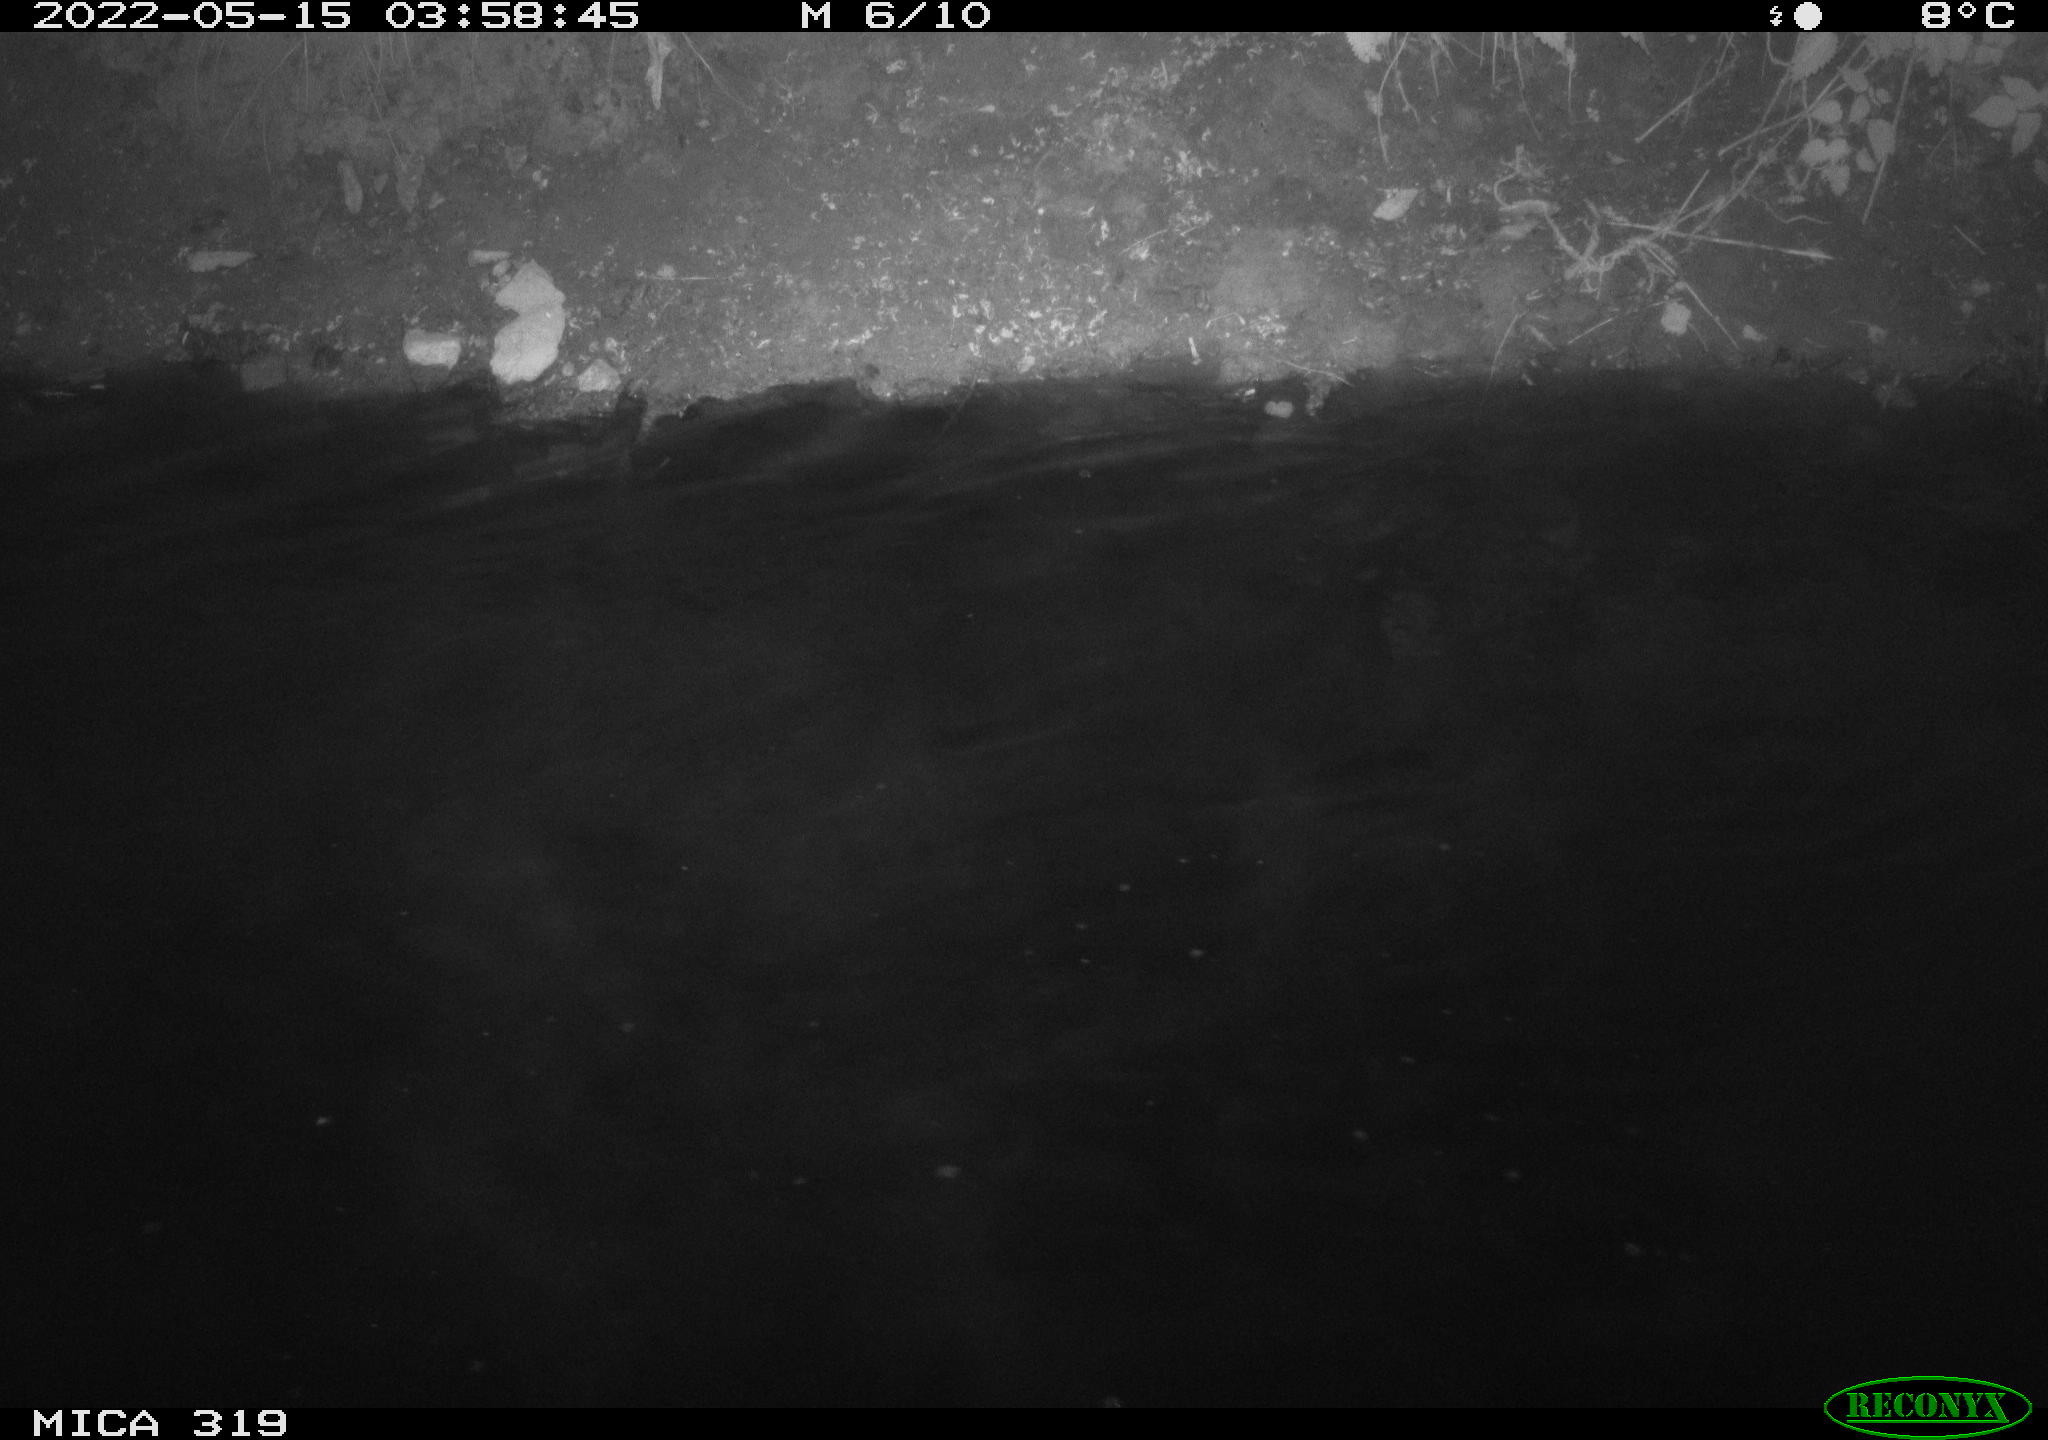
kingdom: Animalia
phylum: Chordata
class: Aves
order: Anseriformes
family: Anatidae
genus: Anas
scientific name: Anas
